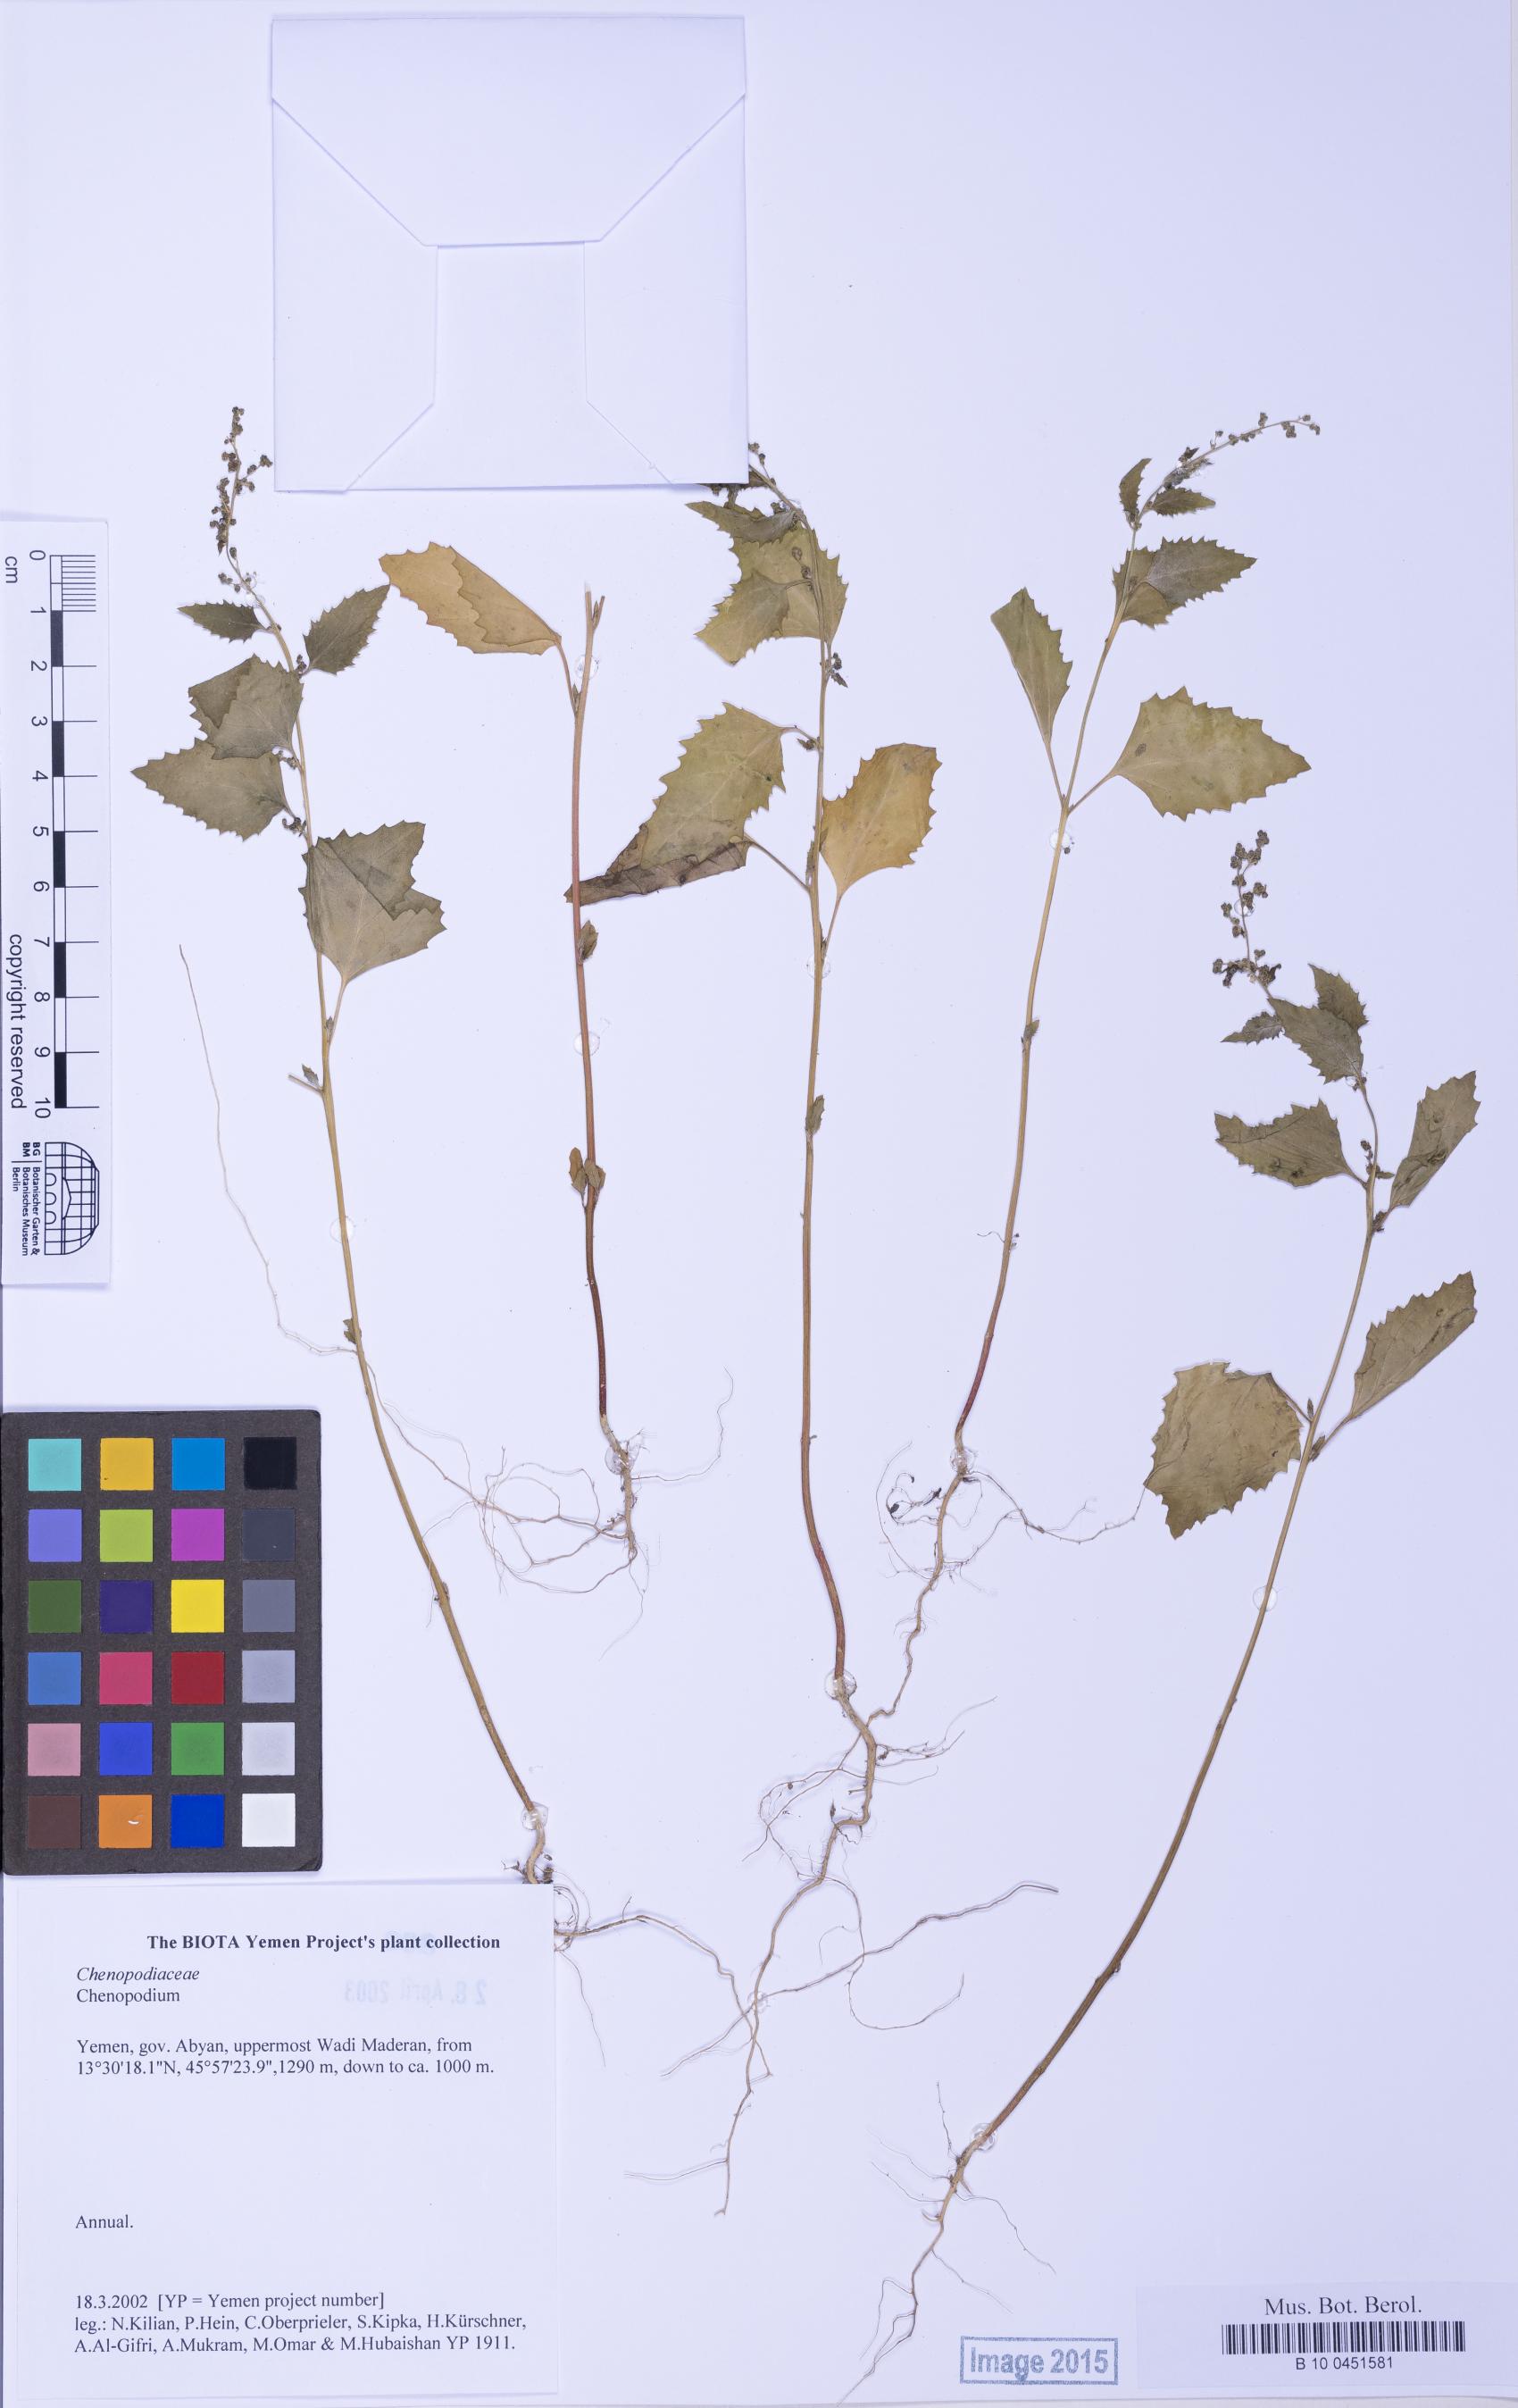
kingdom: Plantae
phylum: Tracheophyta
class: Magnoliopsida
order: Caryophyllales
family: Amaranthaceae
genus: Chenopodium
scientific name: Chenopodium
